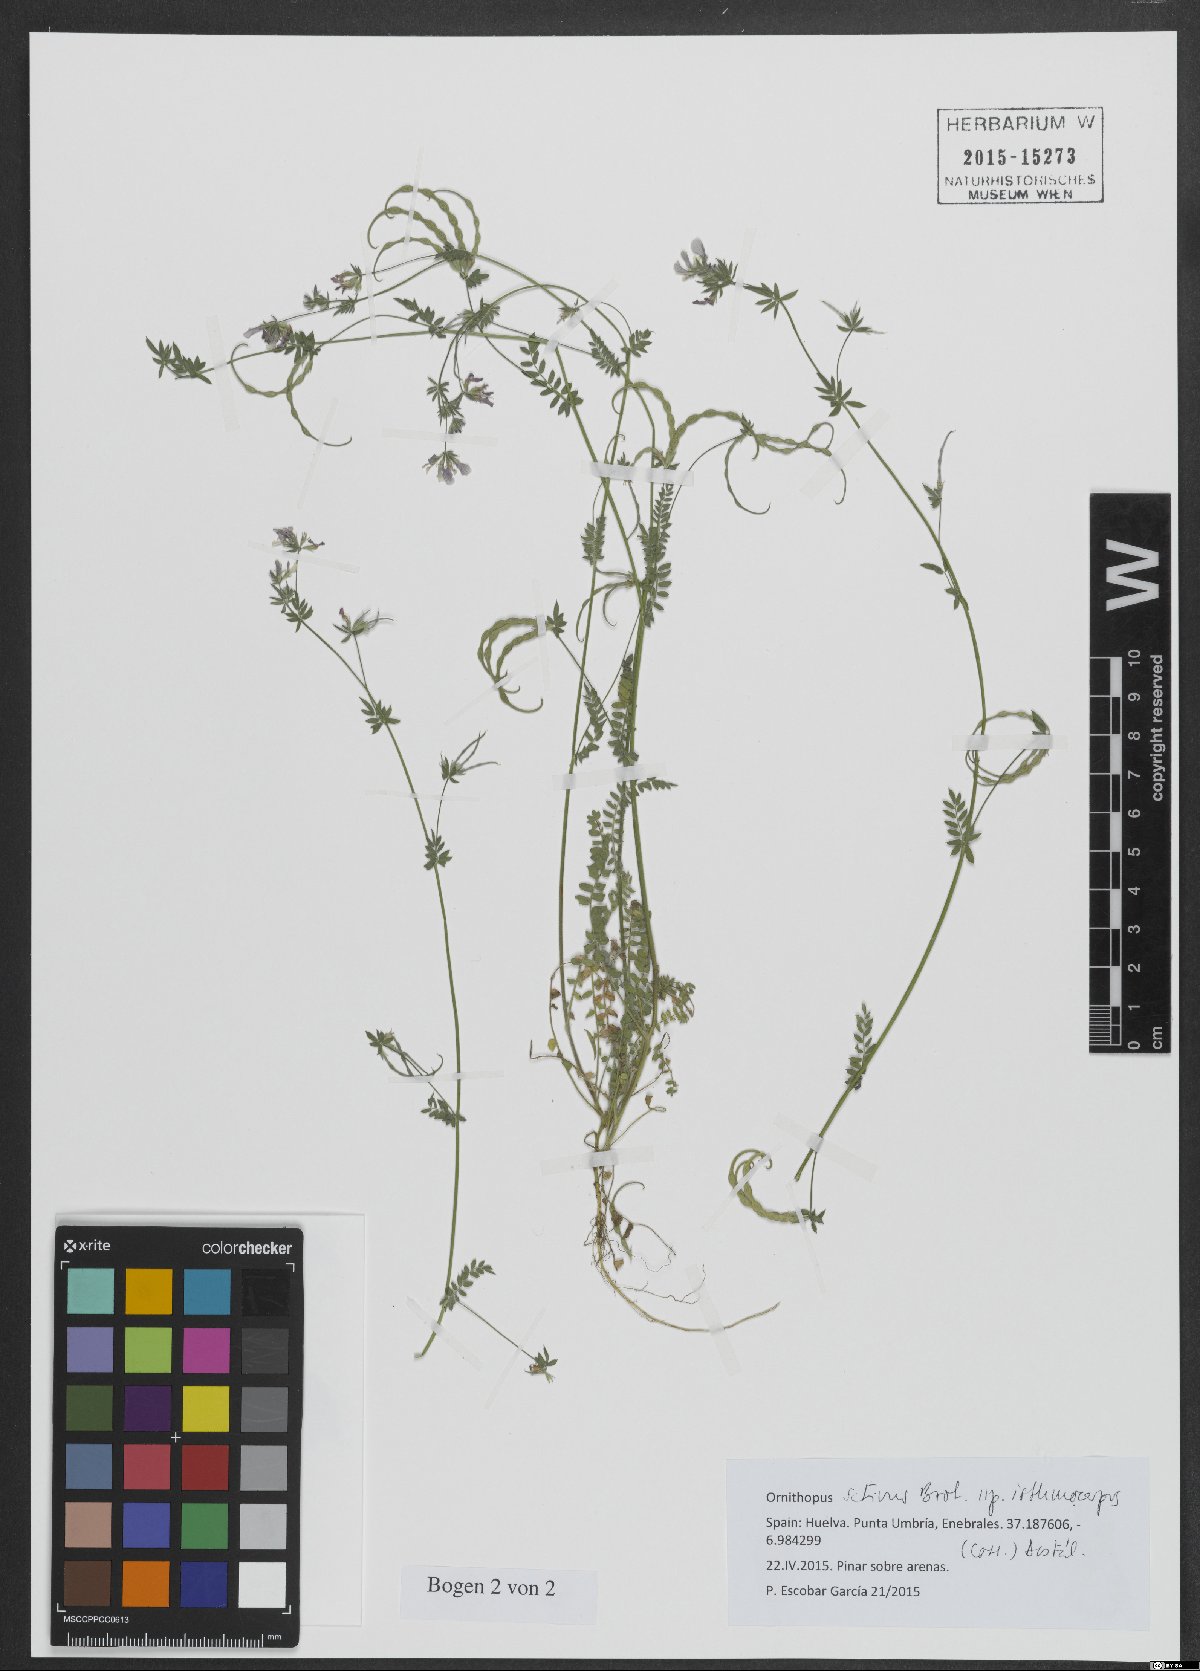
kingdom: Plantae
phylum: Tracheophyta
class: Magnoliopsida
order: Fabales
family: Fabaceae
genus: Ornithopus
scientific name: Ornithopus sativus
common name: Serradella
